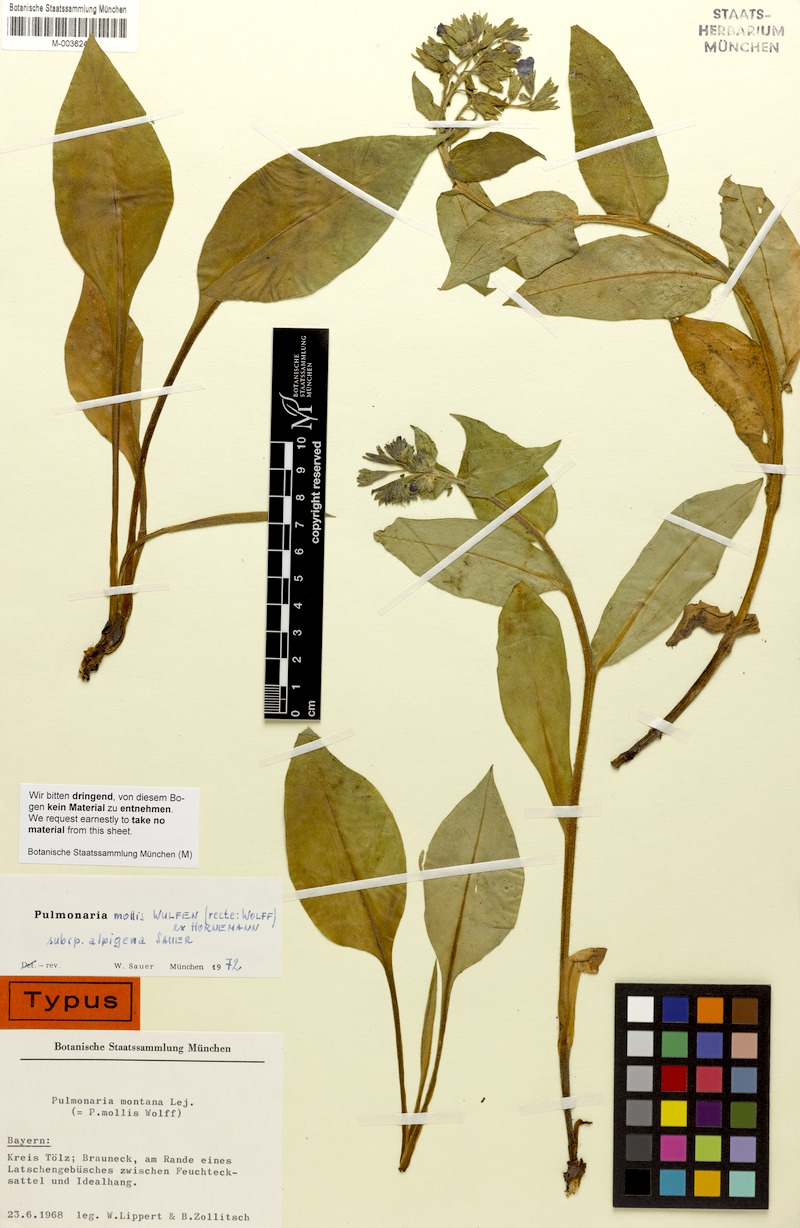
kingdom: Plantae
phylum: Tracheophyta
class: Magnoliopsida
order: Boraginales
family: Boraginaceae
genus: Pulmonaria
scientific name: Pulmonaria mollis
